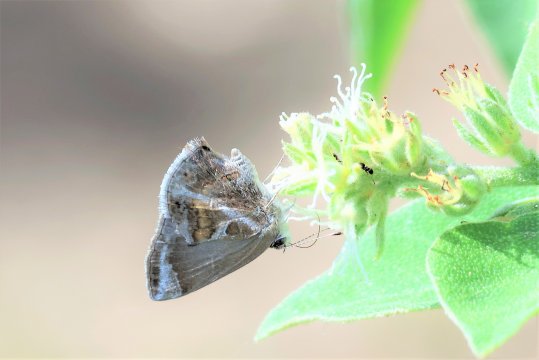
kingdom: Animalia
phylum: Arthropoda
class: Insecta
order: Lepidoptera
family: Lycaenidae
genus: Strymon
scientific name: Strymon bazochii
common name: Lantana Scrub-Hairstreak
